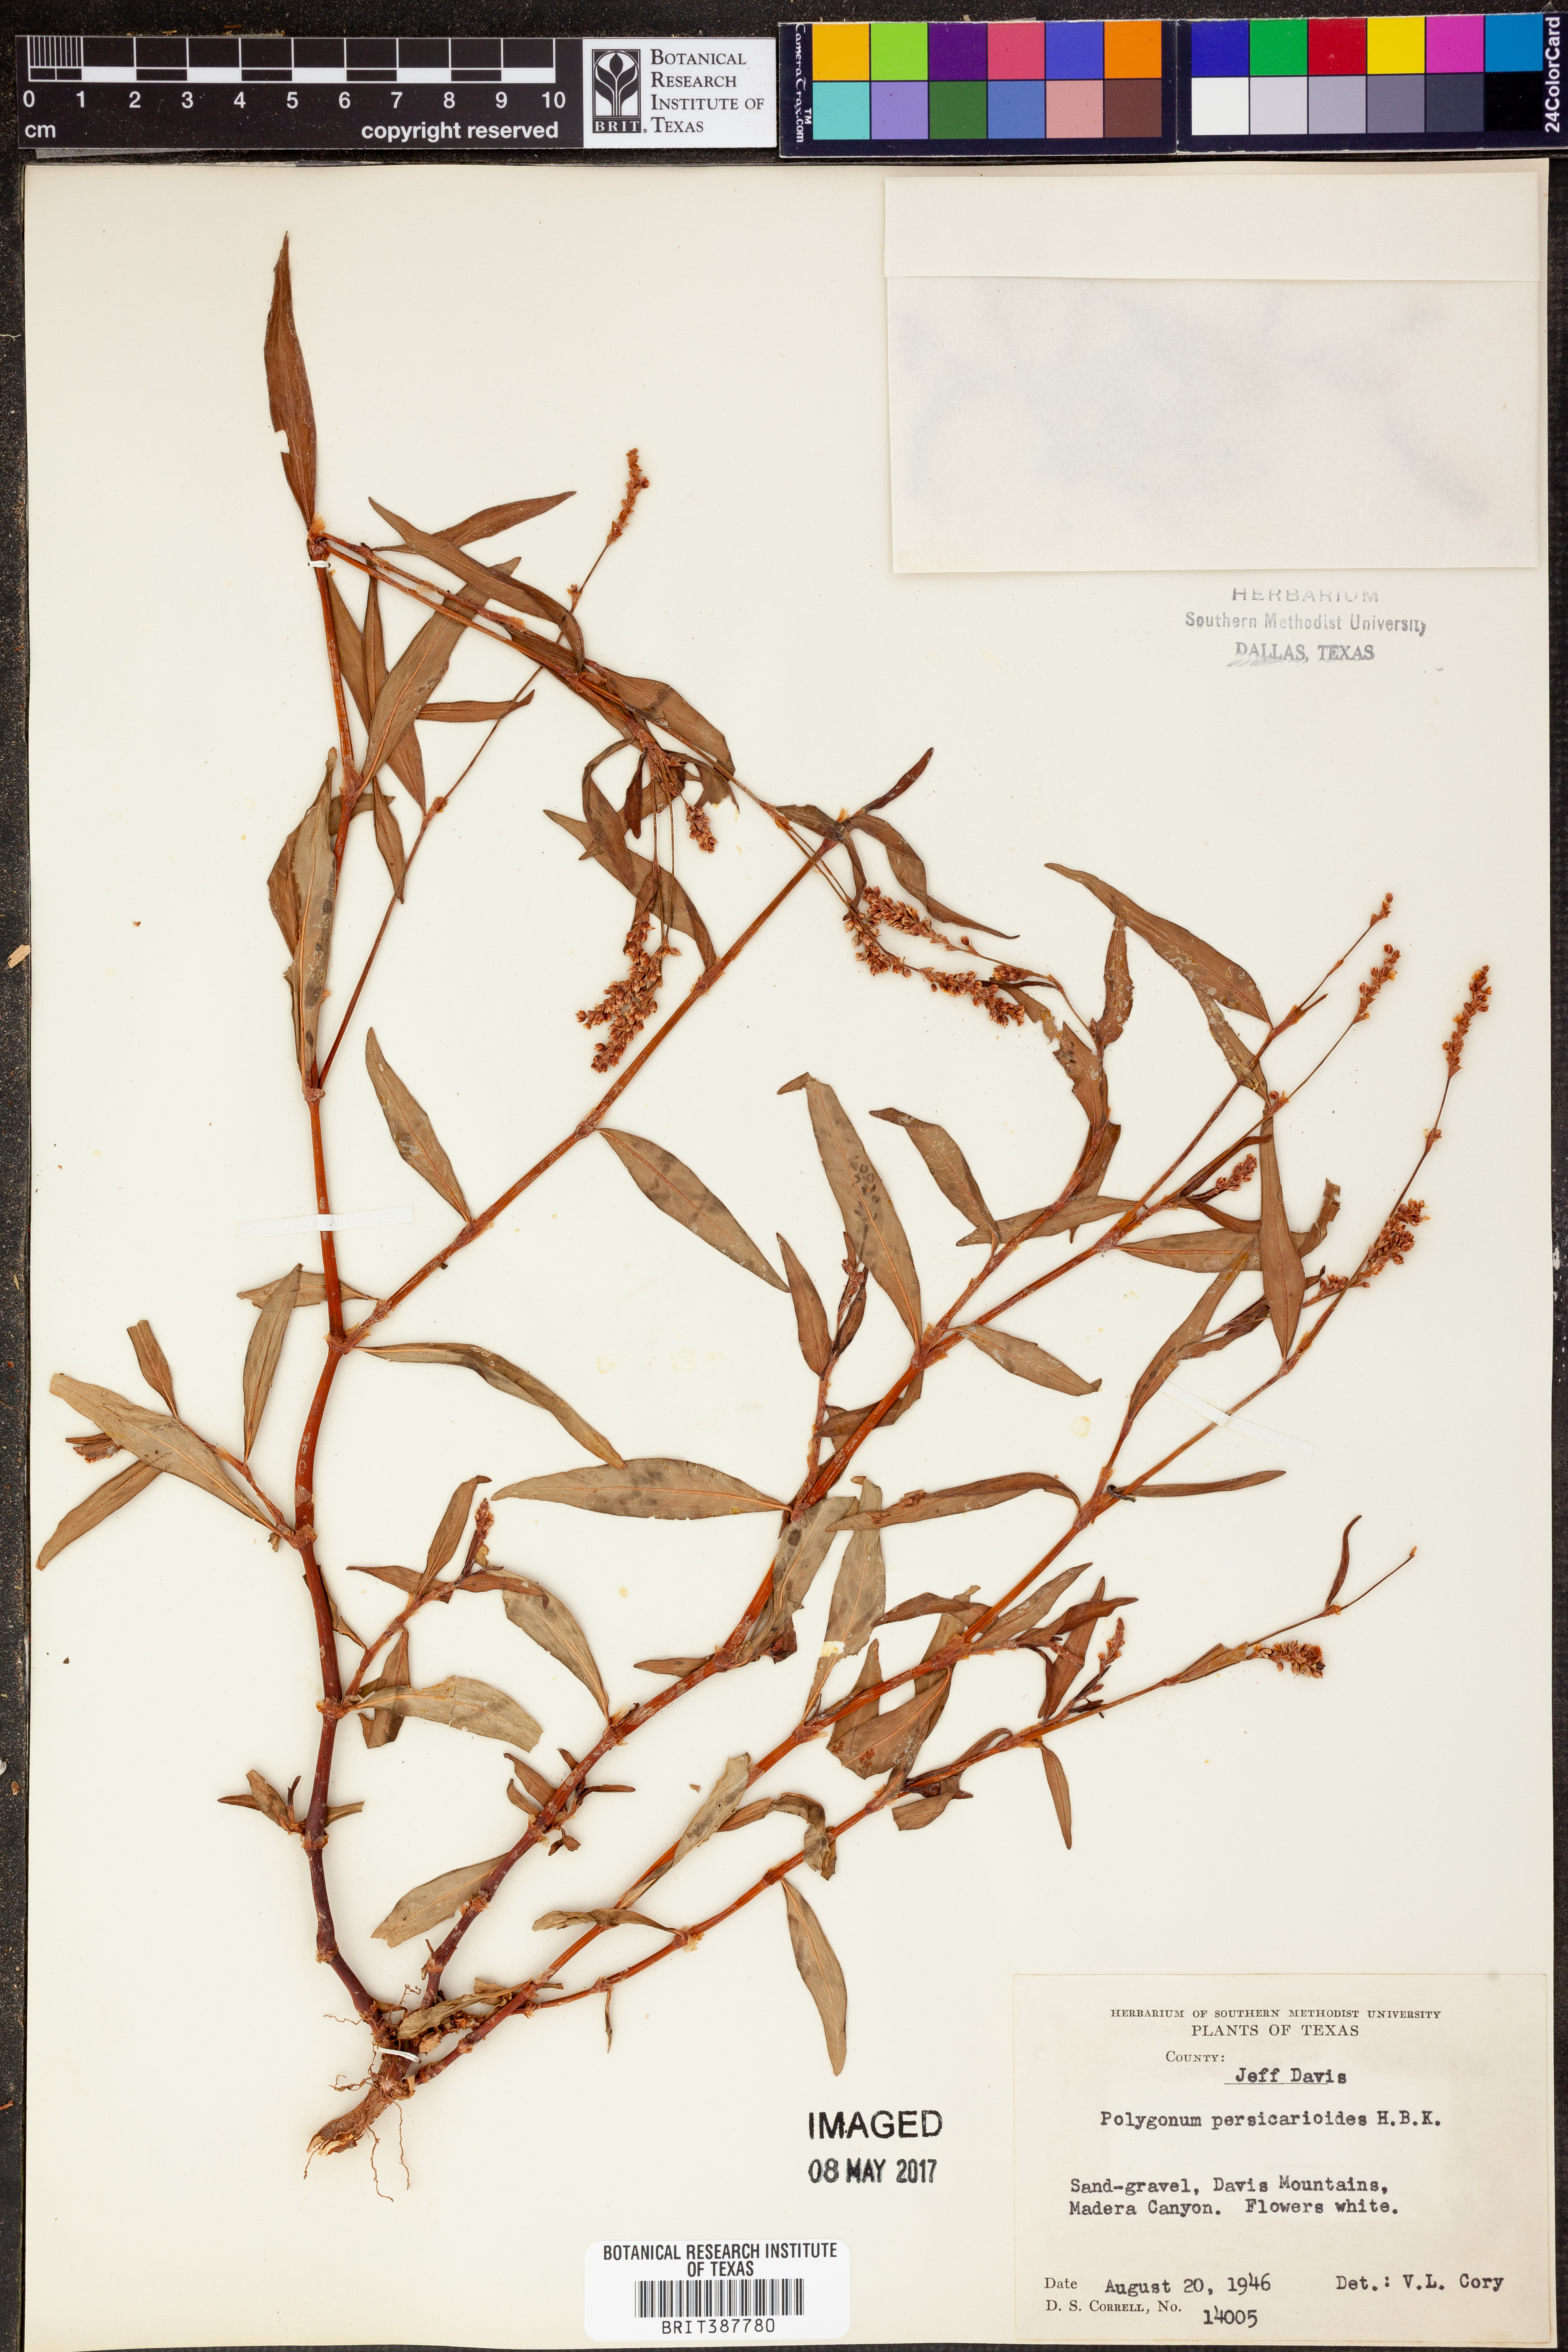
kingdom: Plantae
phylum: Tracheophyta
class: Magnoliopsida
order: Caryophyllales
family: Polygonaceae
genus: Persicaria
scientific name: Persicaria hydropiperoides
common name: Swamp smartweed
